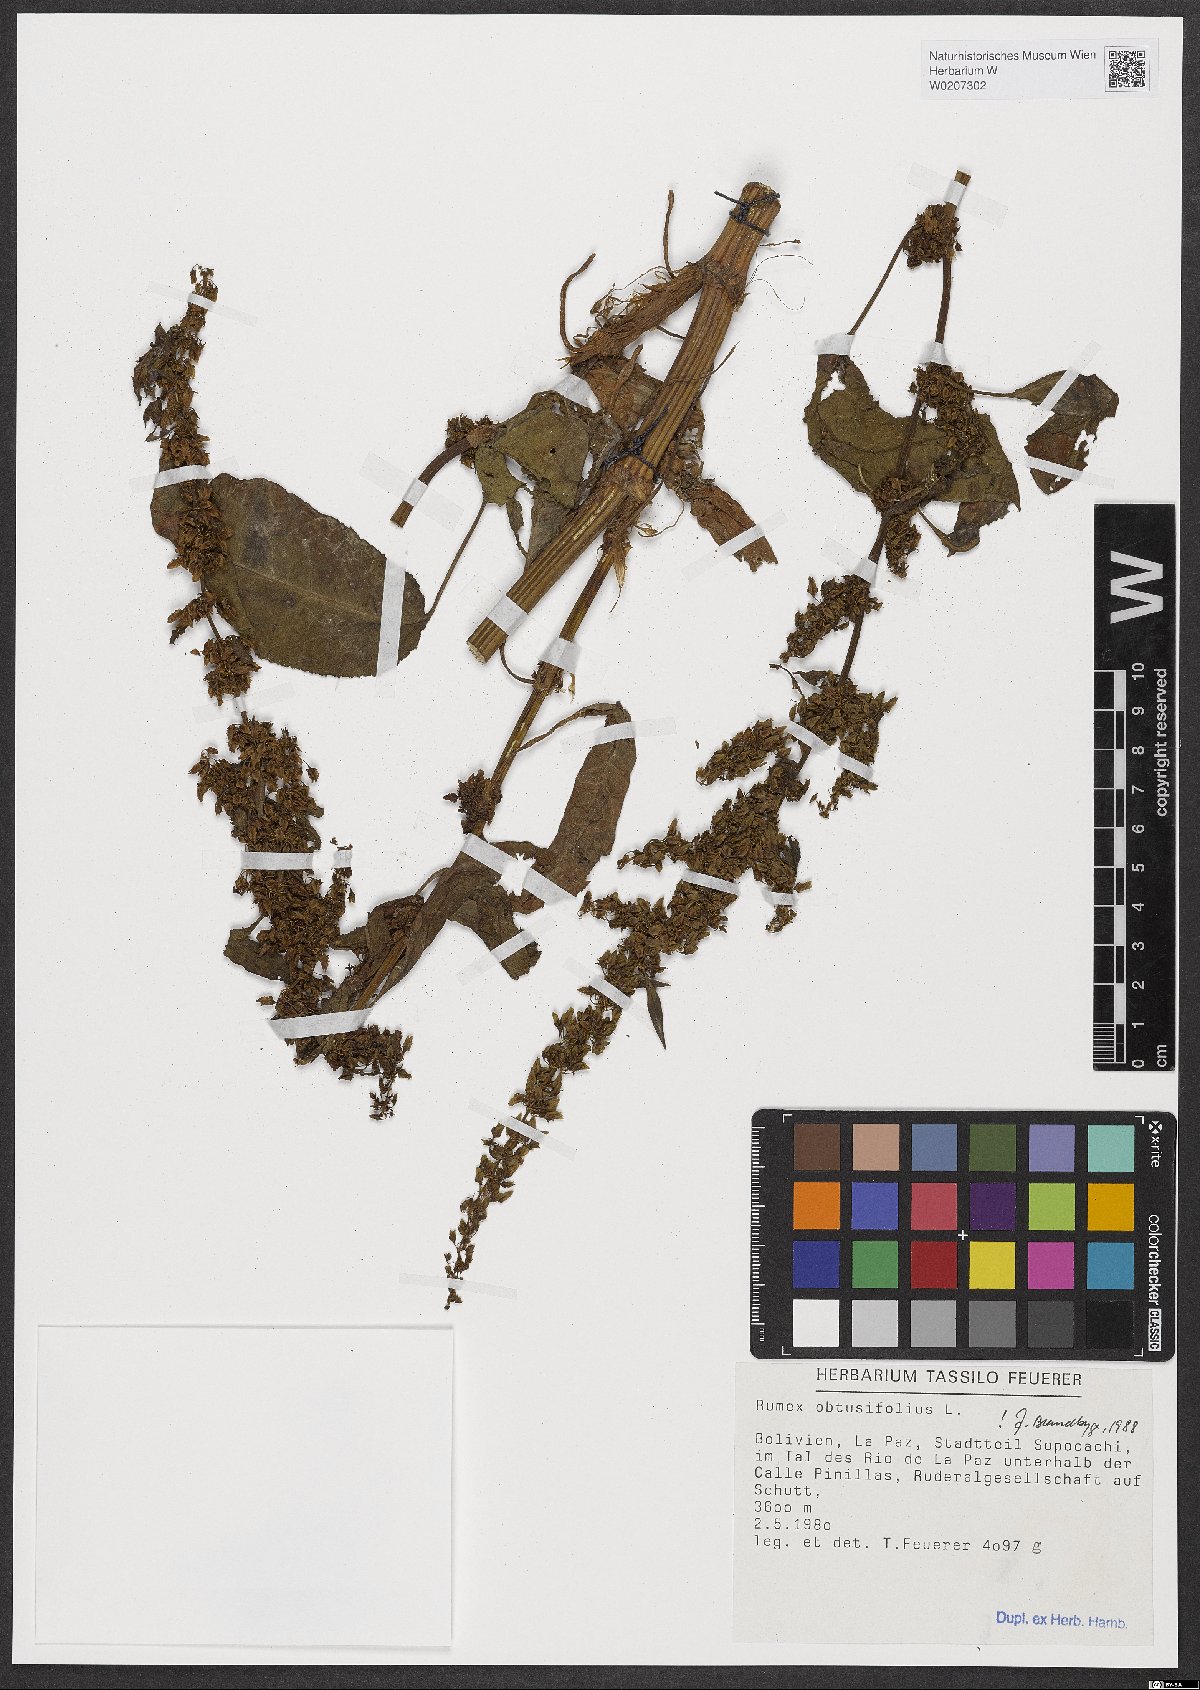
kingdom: Plantae
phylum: Tracheophyta
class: Magnoliopsida
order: Caryophyllales
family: Polygonaceae
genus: Rumex
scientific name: Rumex obtusifolius
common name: Bitter dock
